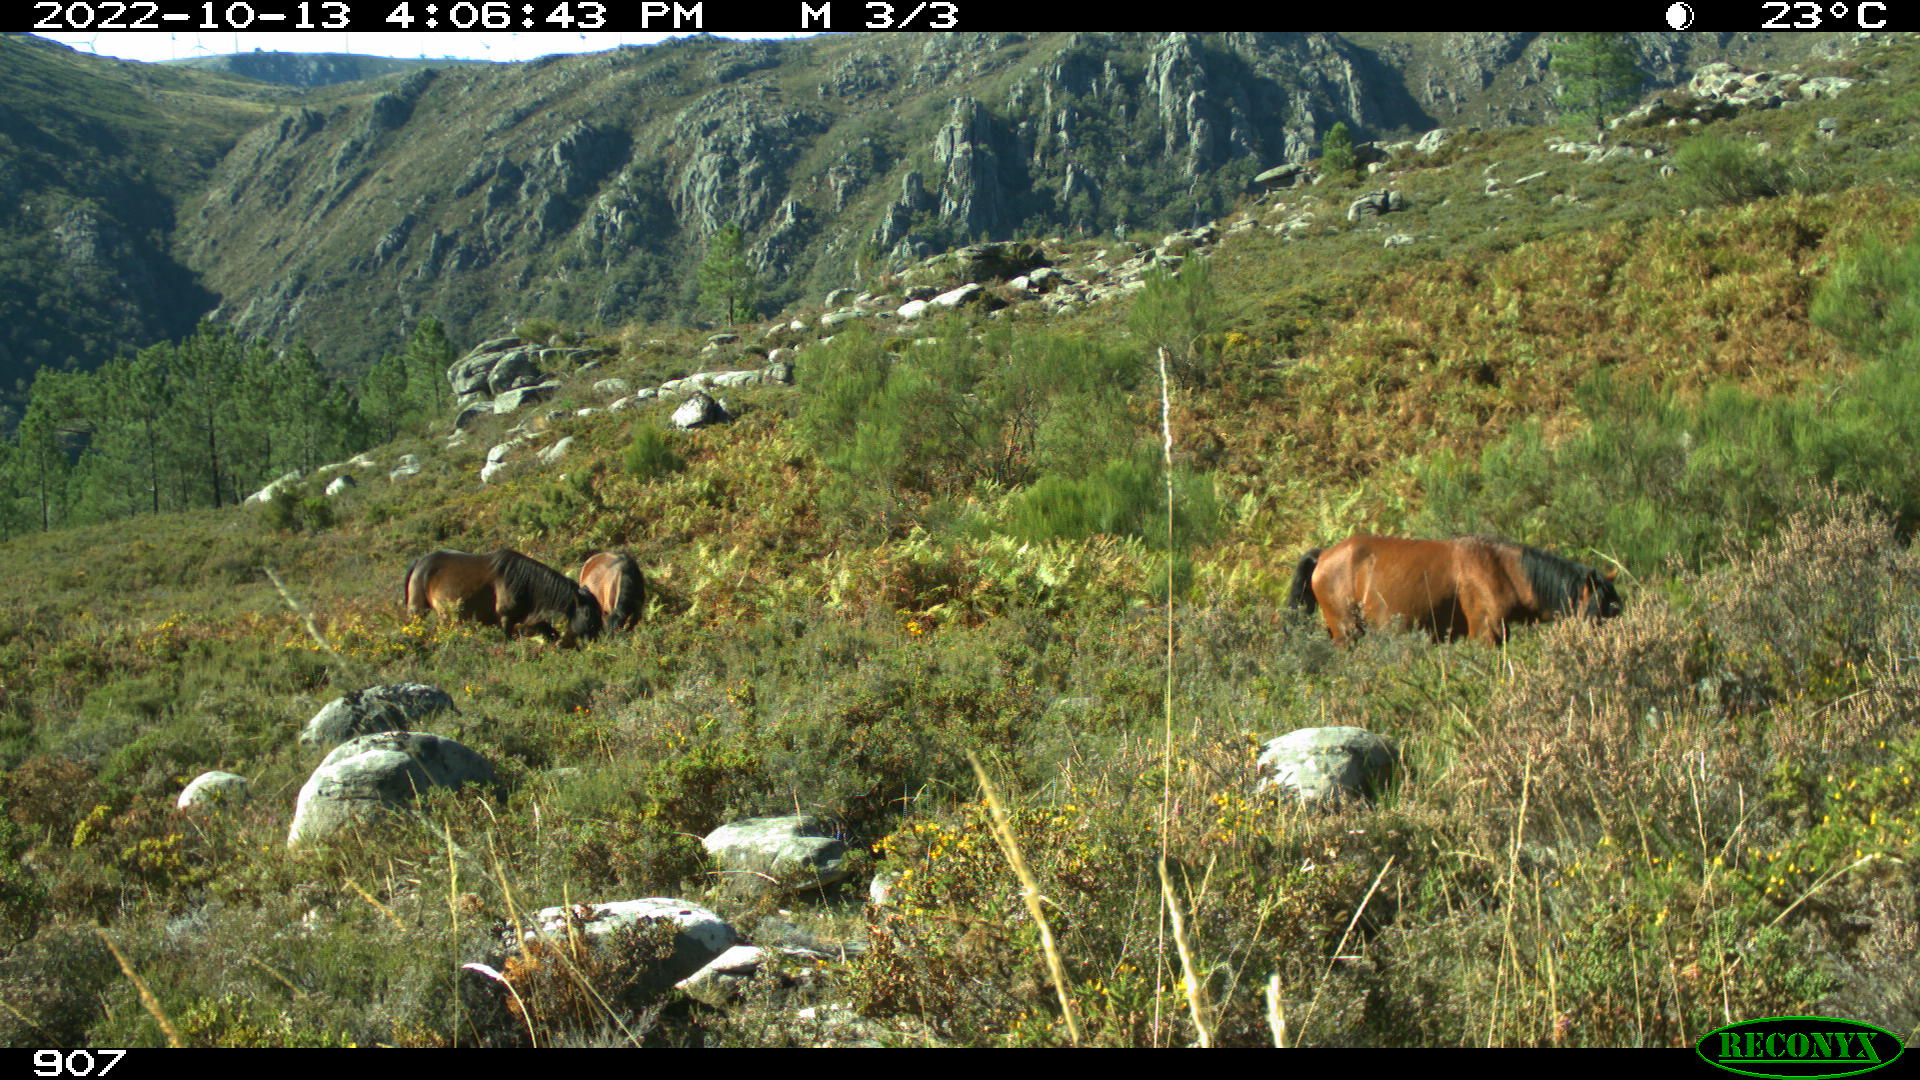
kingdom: Animalia
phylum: Chordata
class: Mammalia
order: Perissodactyla
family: Equidae
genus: Equus
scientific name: Equus caballus
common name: Horse
